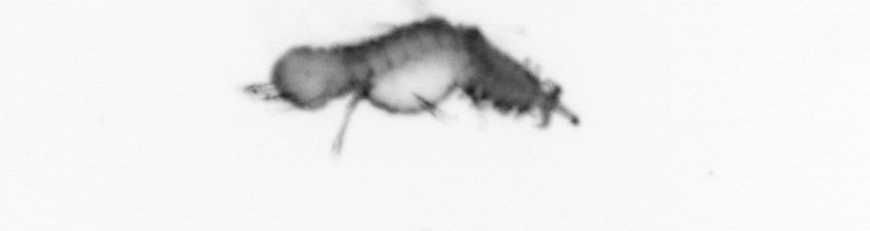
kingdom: Animalia
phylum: Annelida
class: Polychaeta
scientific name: Polychaeta
